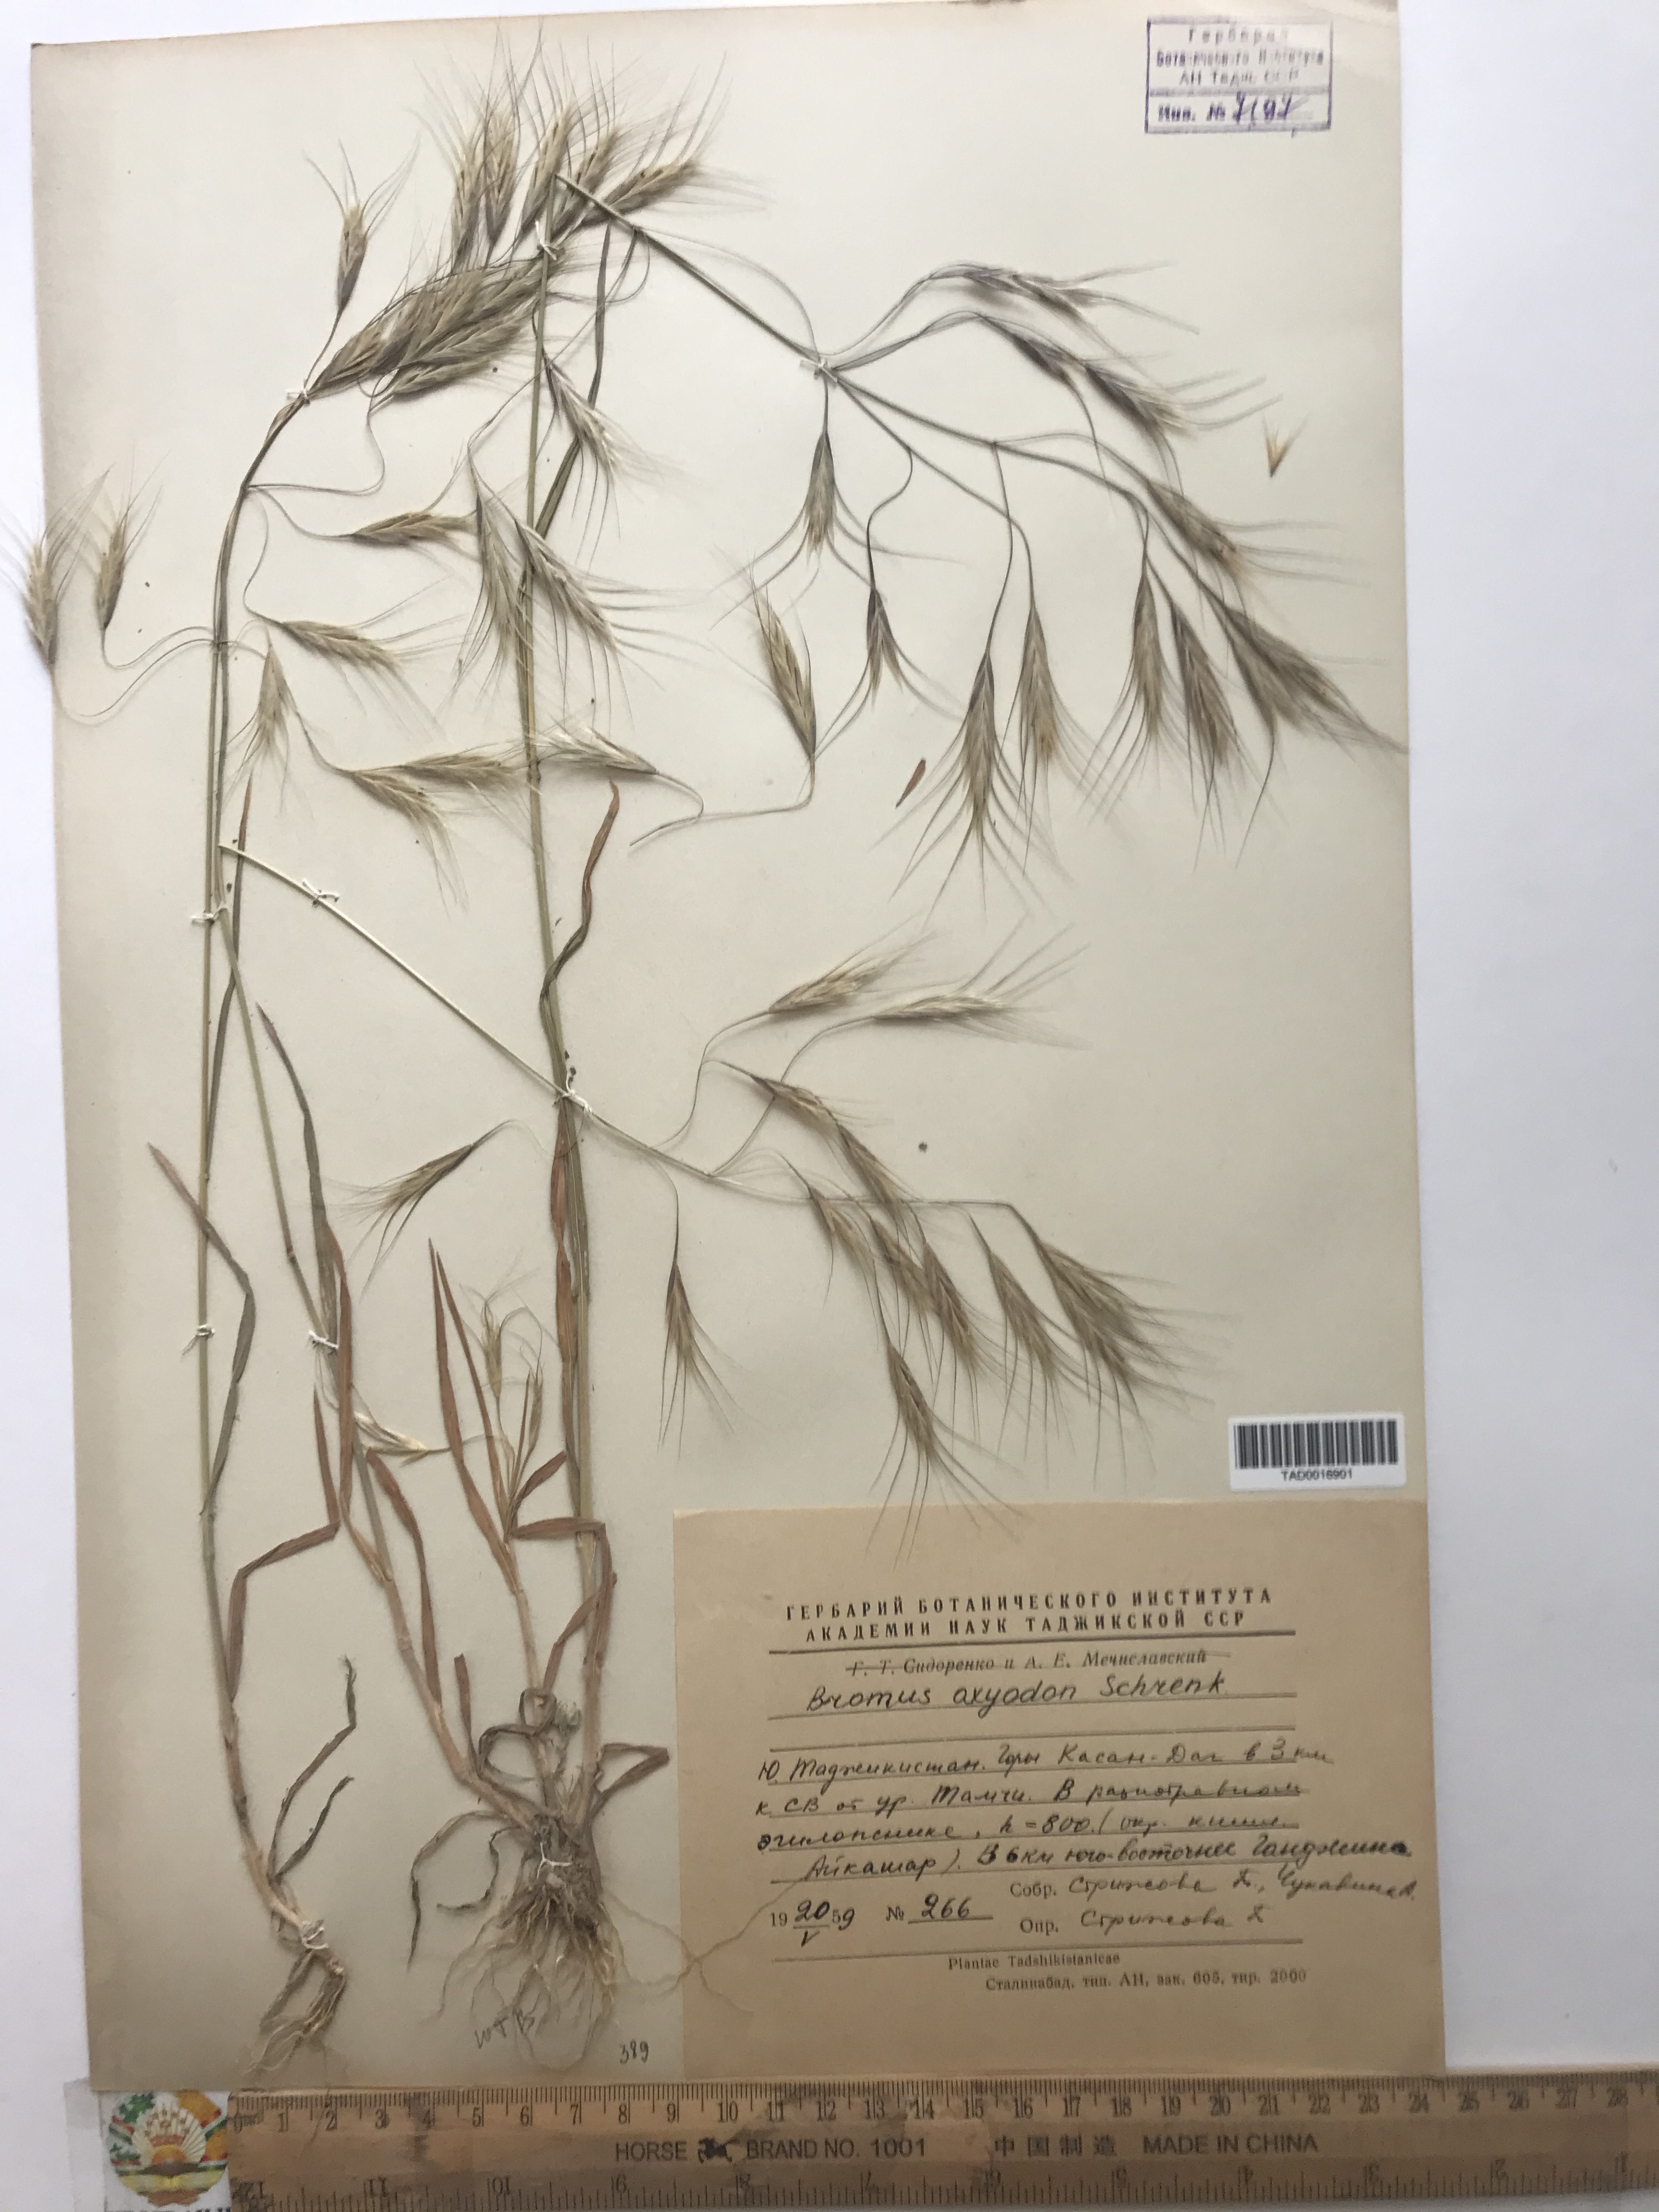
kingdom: Plantae
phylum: Tracheophyta
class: Liliopsida
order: Poales
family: Poaceae
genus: Bromus
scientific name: Bromus oxyodon
